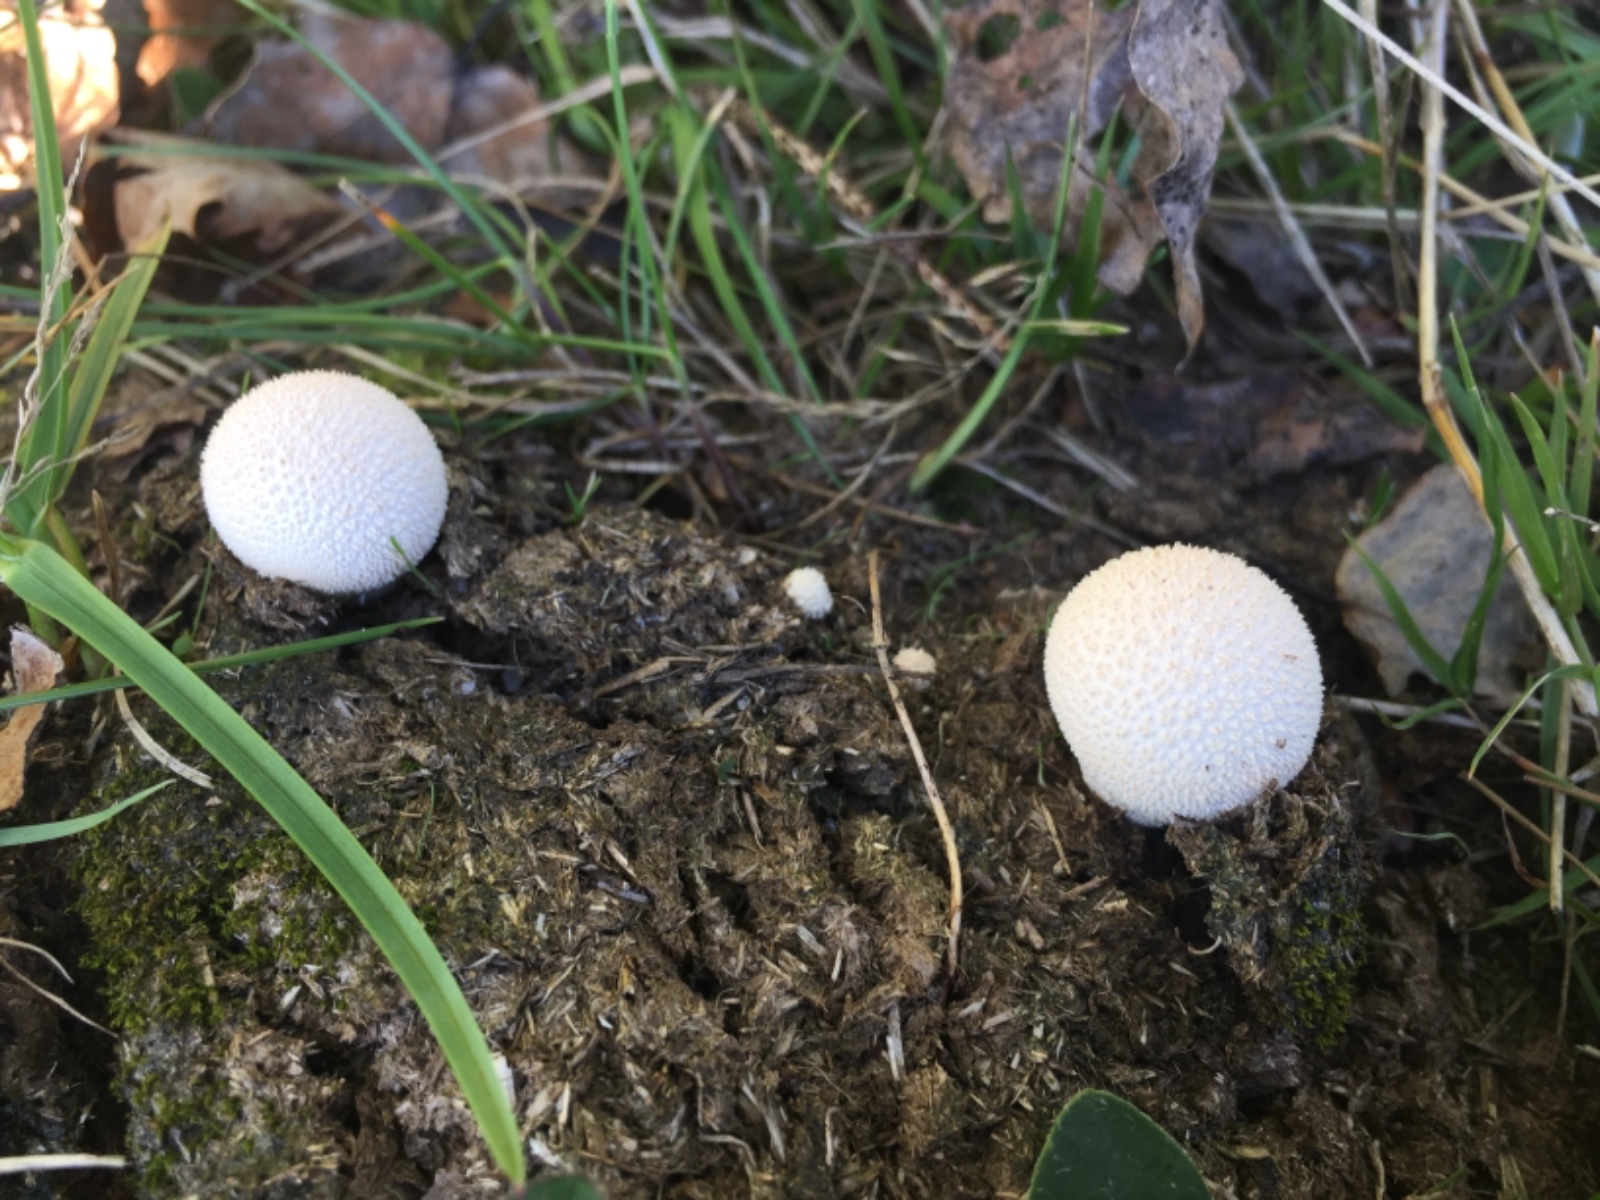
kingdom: Fungi
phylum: Basidiomycota
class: Agaricomycetes
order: Agaricales
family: Lycoperdaceae
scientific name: Lycoperdaceae
